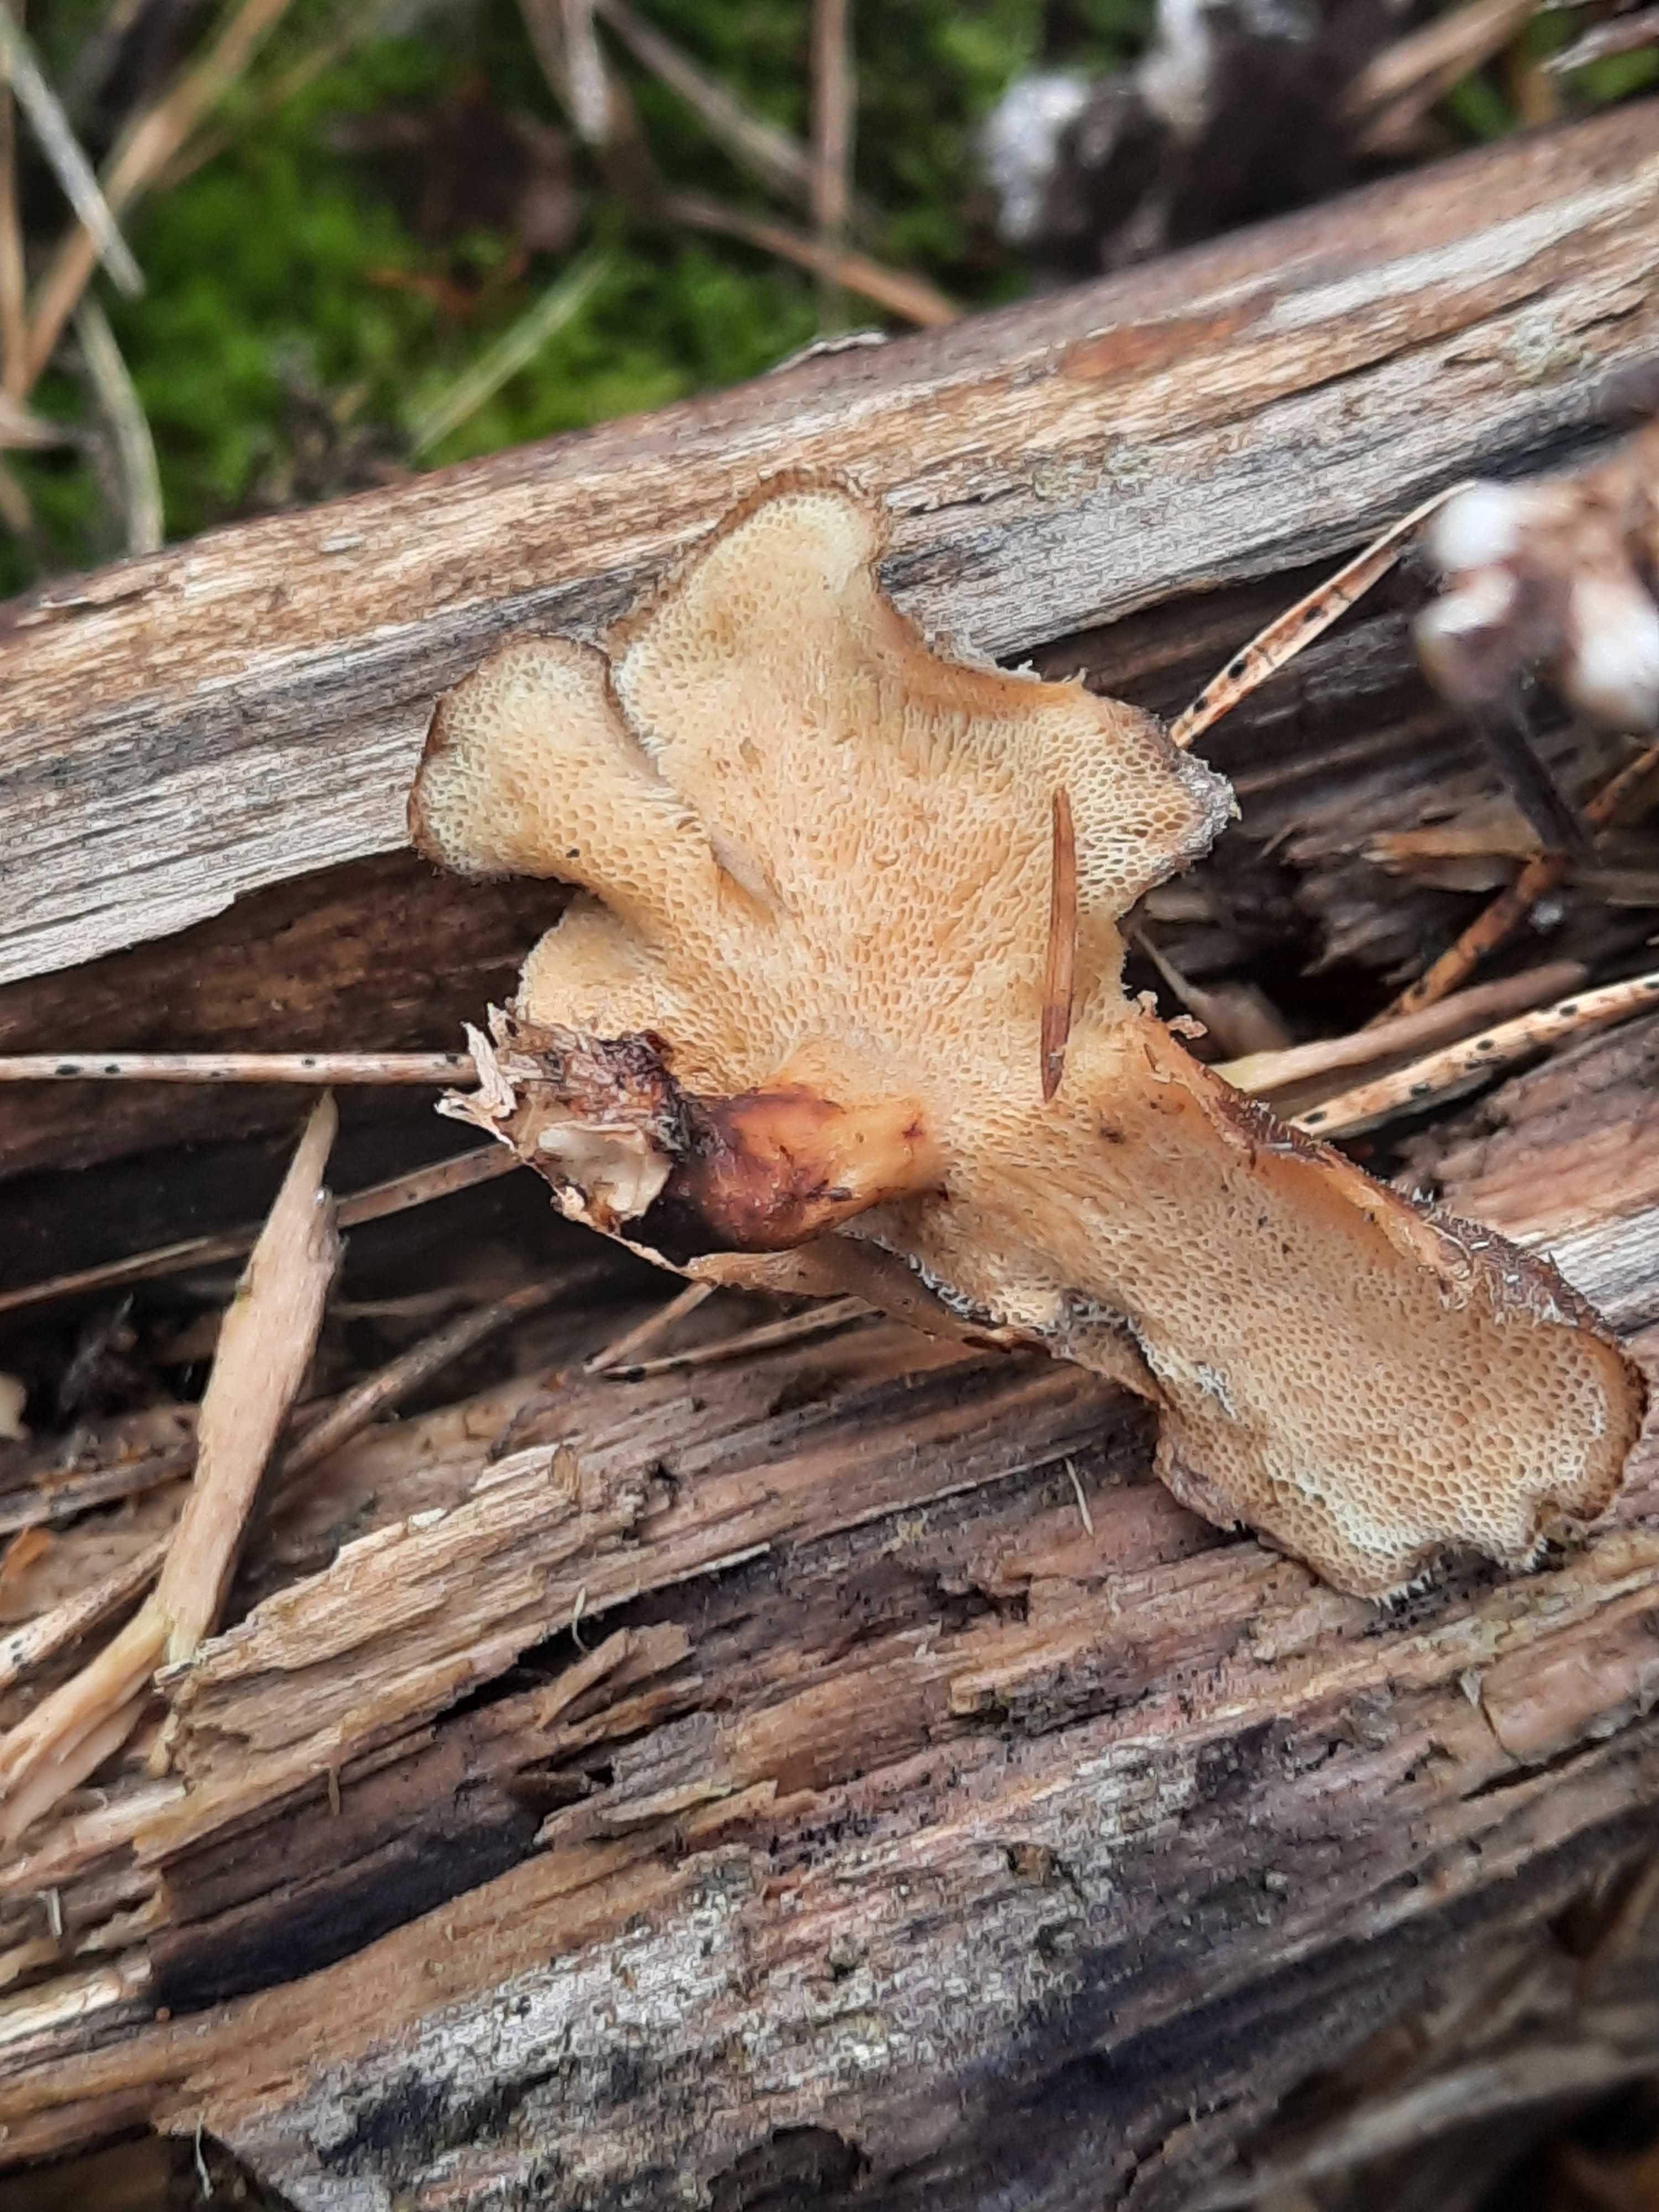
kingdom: Fungi
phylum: Basidiomycota
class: Agaricomycetes
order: Polyporales
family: Polyporaceae
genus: Lentinus
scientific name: Lentinus brumalis
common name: vinter-stilkporesvamp
